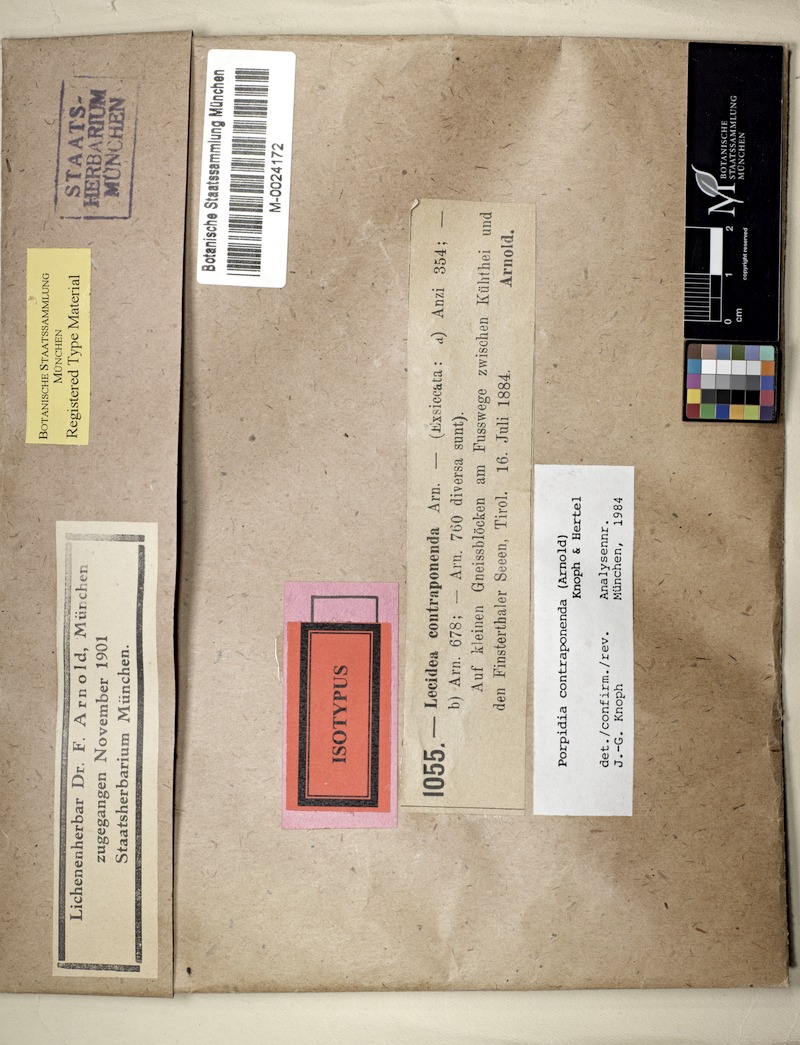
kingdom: Fungi
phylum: Ascomycota
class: Lecanoromycetes
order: Lecideales
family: Lecideaceae
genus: Porpidia
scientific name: Porpidia contraponenda
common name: Diverse porpidia lichen
